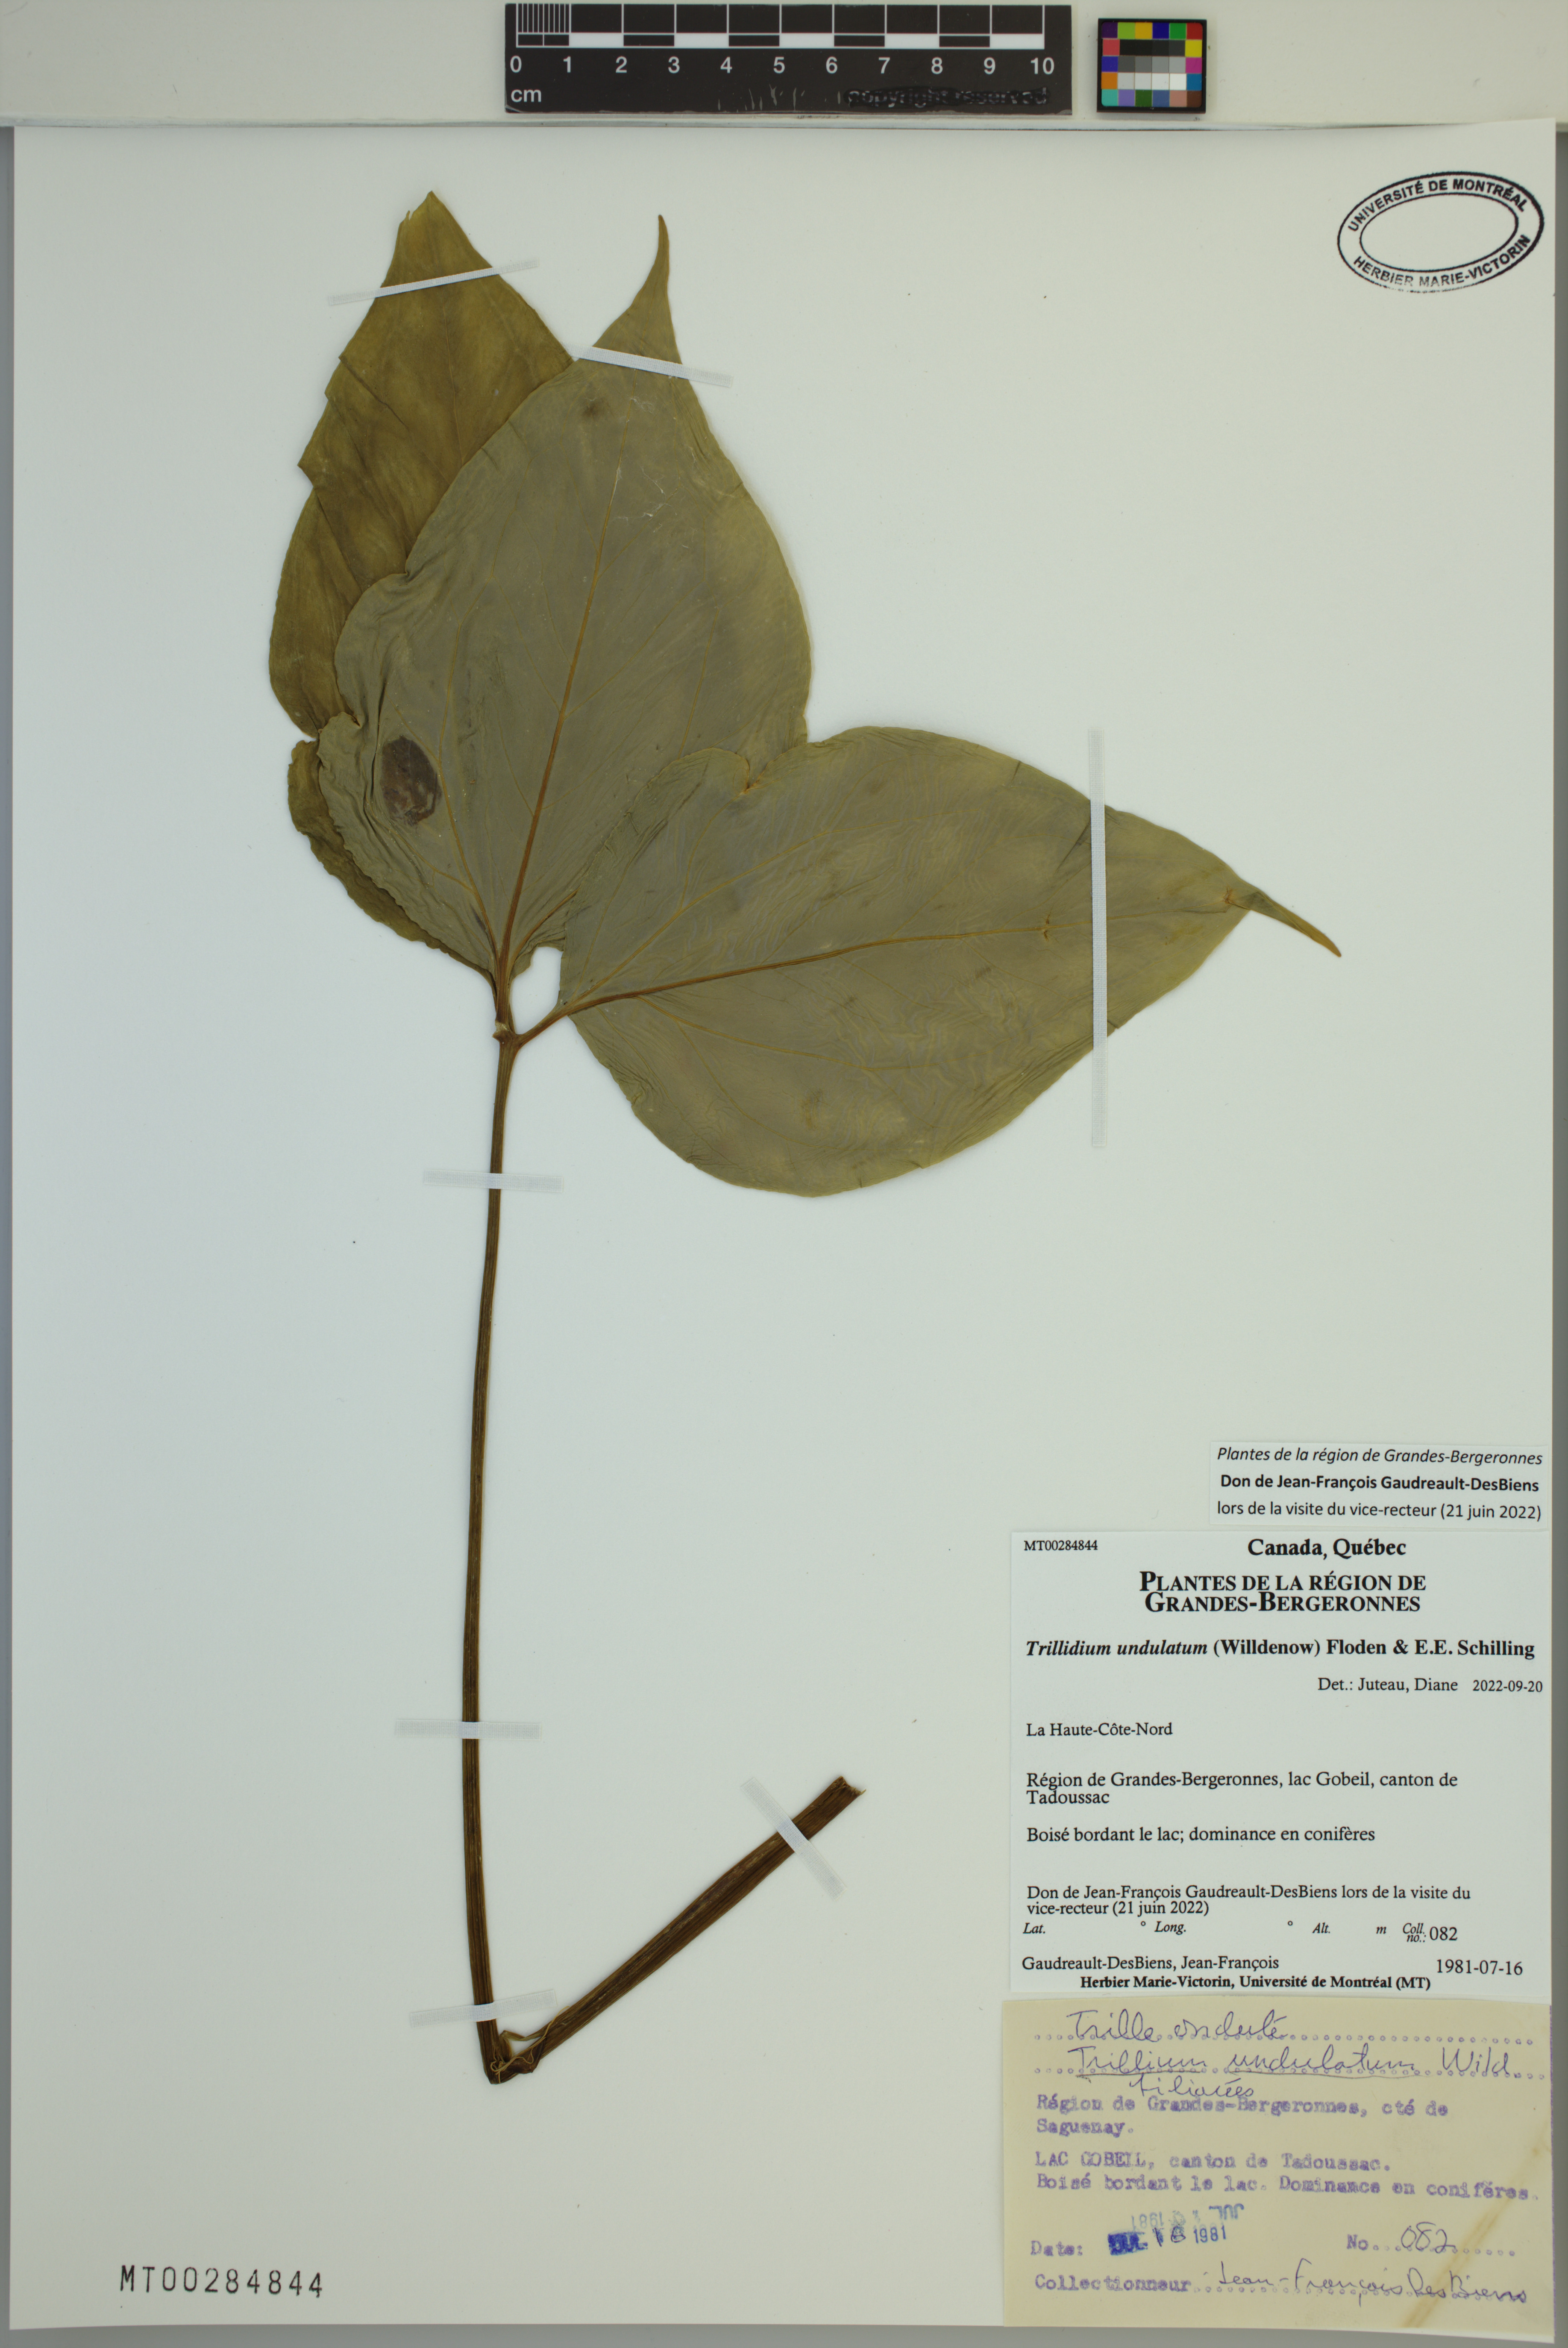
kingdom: Plantae
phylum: Tracheophyta
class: Liliopsida
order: Liliales
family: Melanthiaceae
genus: Trillium
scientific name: Trillium undulatum
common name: Paint trillium
